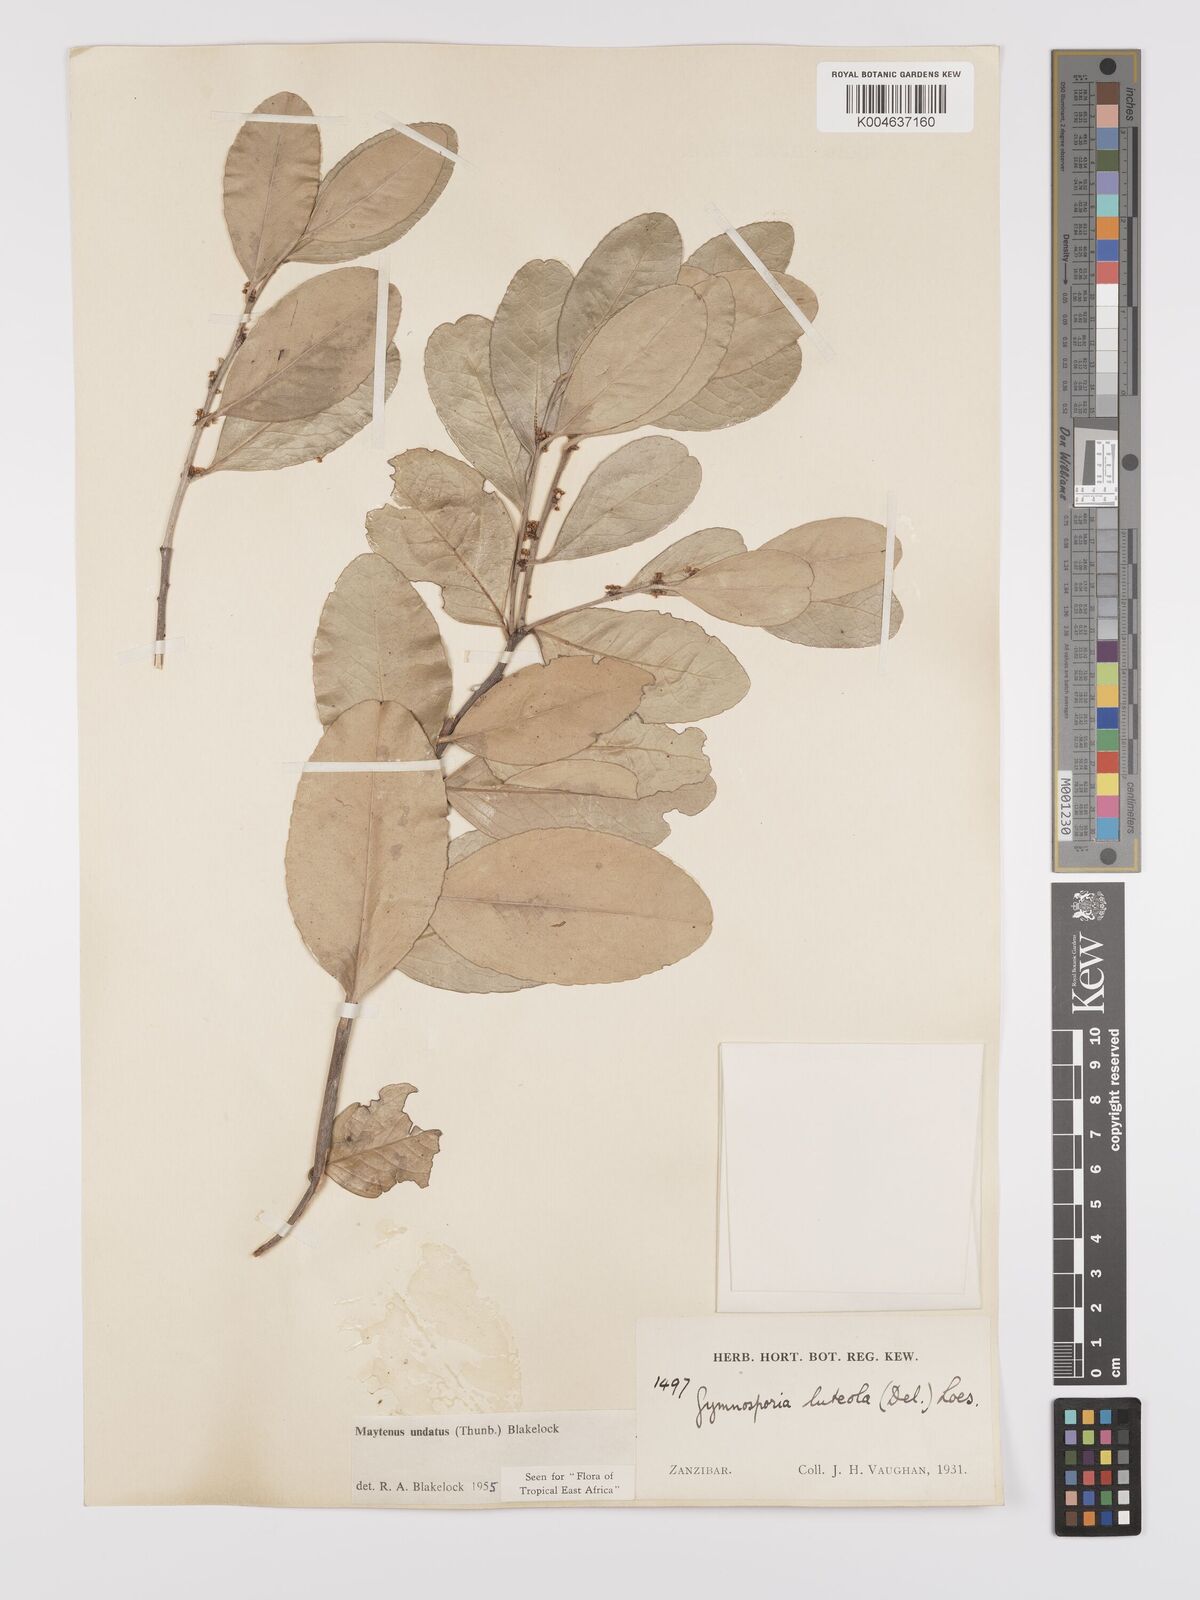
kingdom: Plantae
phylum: Tracheophyta
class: Magnoliopsida
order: Celastrales
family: Celastraceae
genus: Gymnosporia
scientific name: Gymnosporia undata
